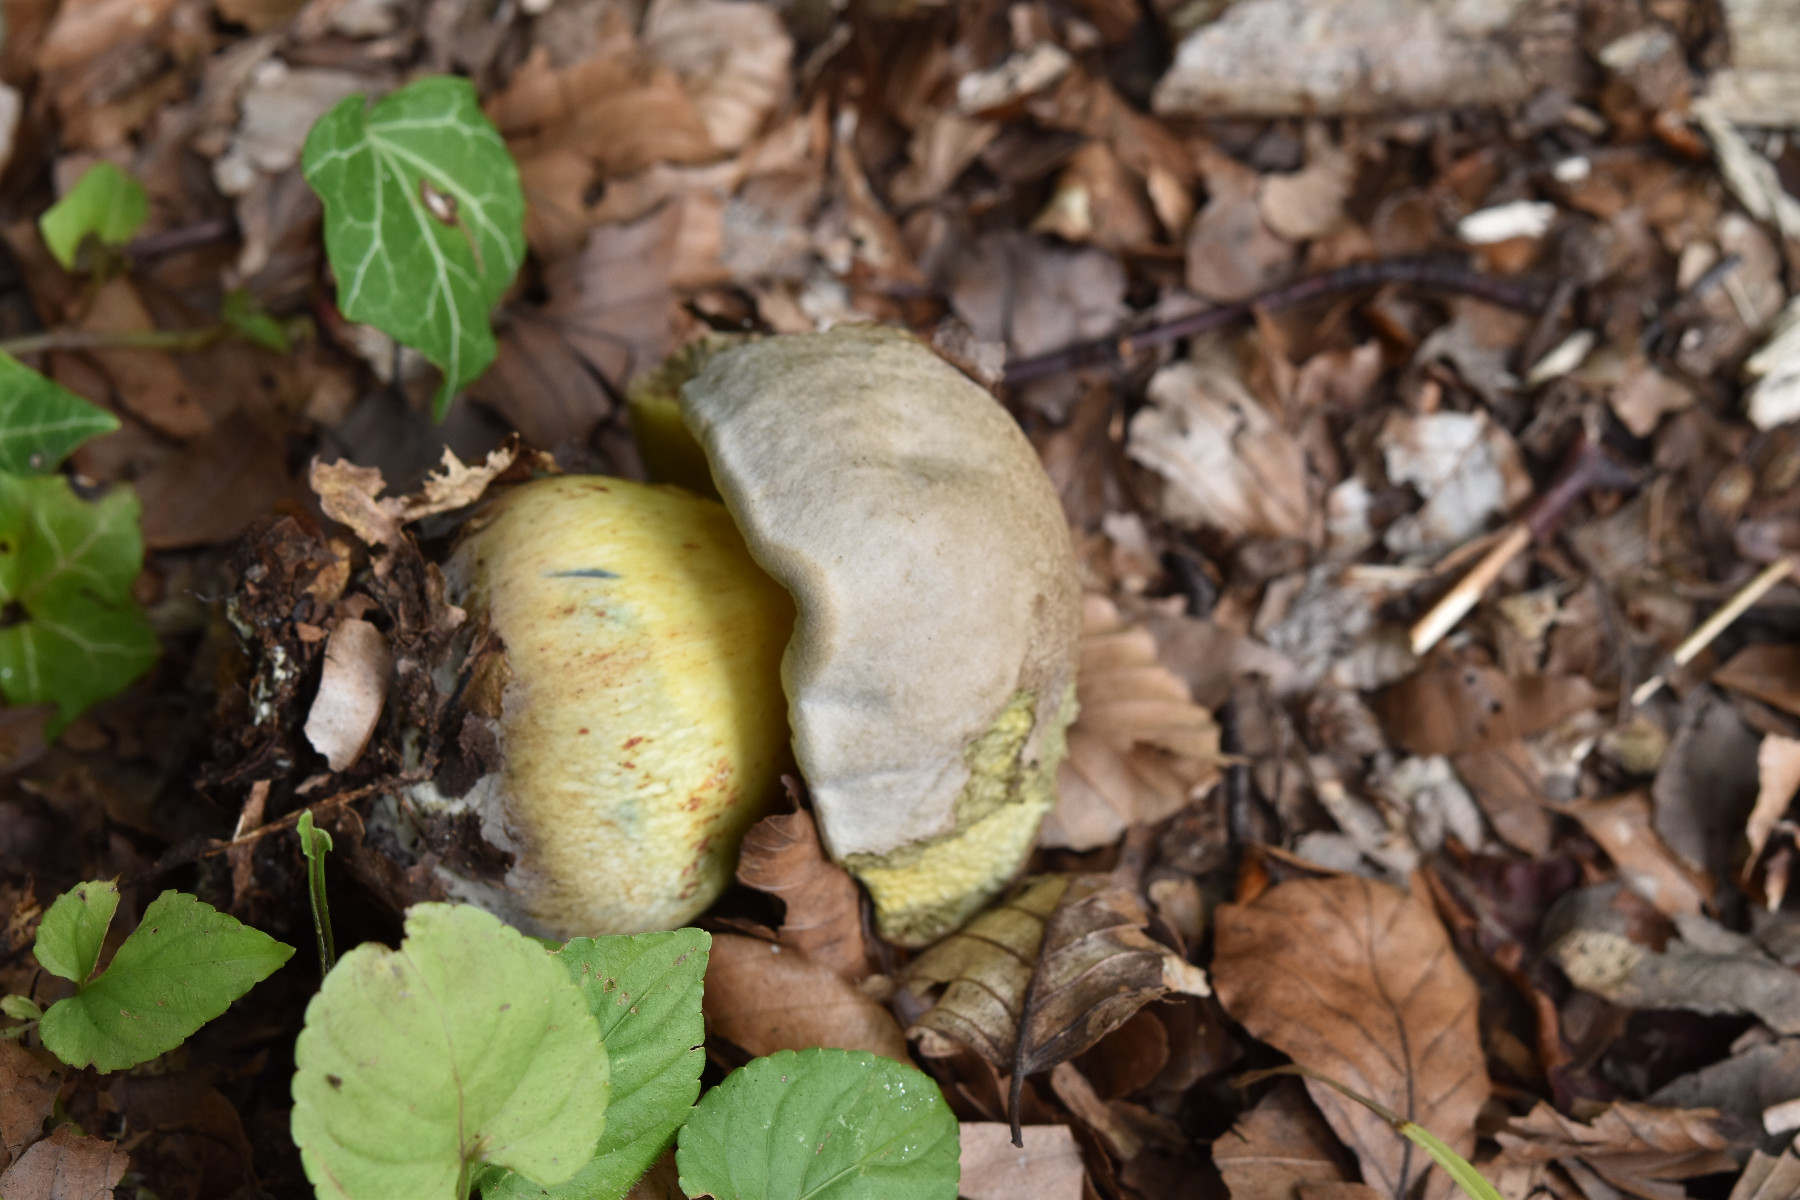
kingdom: Fungi
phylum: Basidiomycota
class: Agaricomycetes
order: Boletales
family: Boletaceae
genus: Caloboletus
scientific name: Caloboletus radicans
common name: rod-rørhat
